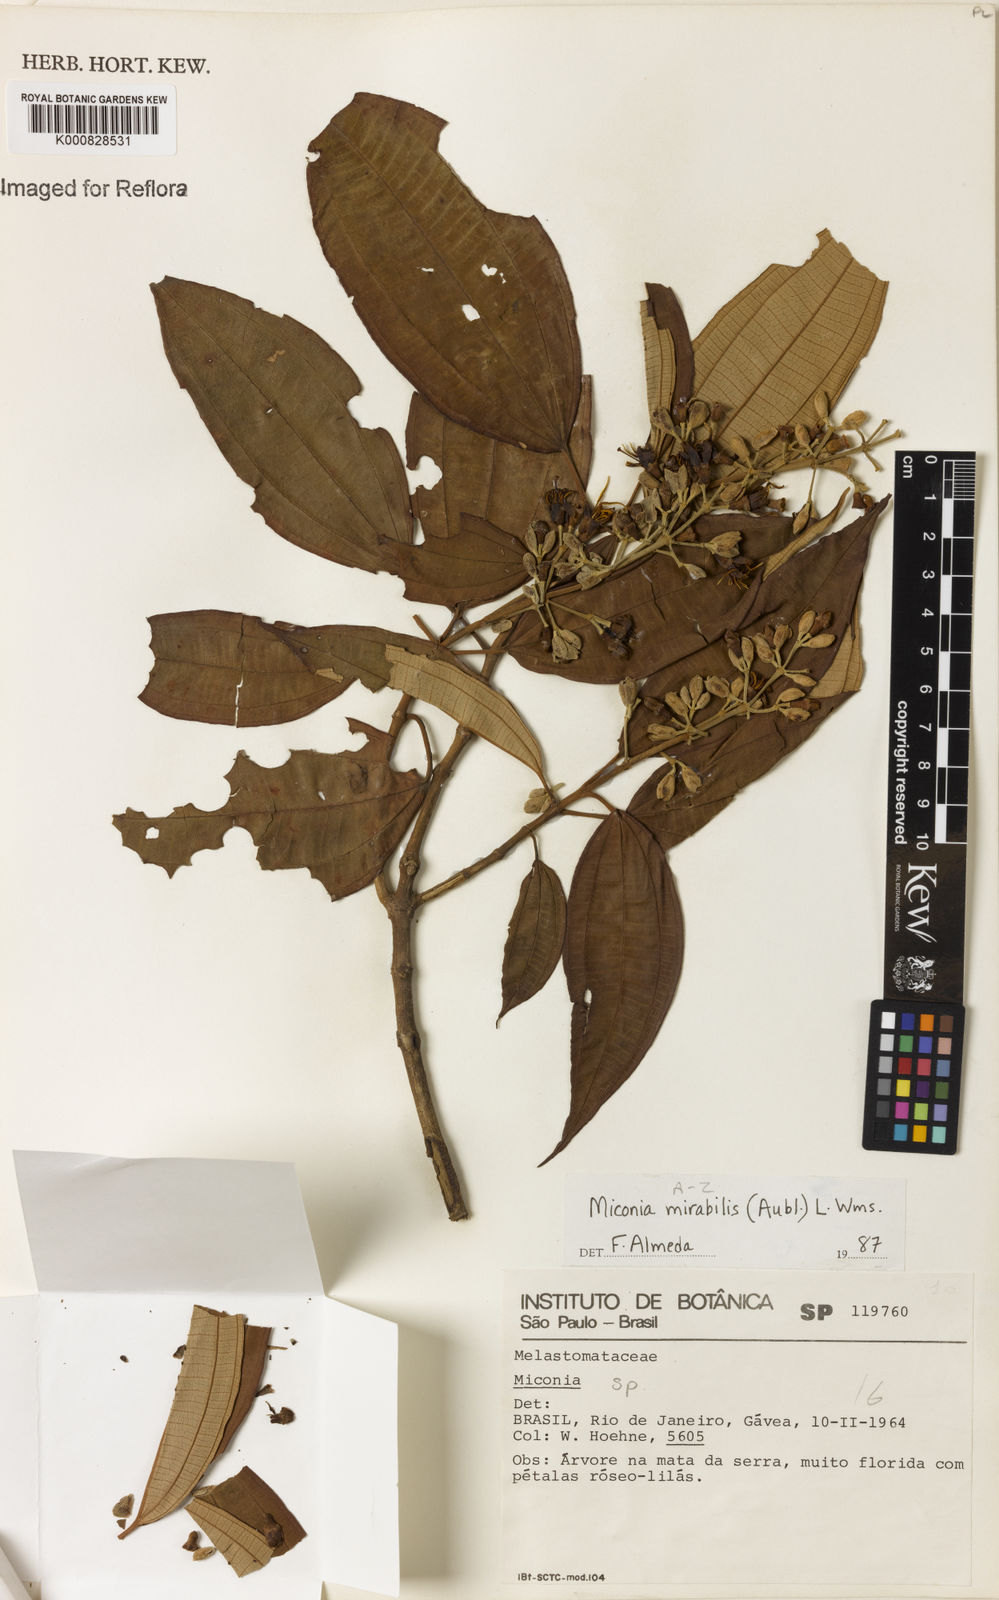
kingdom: Plantae
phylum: Tracheophyta
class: Magnoliopsida
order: Myrtales
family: Melastomataceae
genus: Miconia
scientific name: Miconia mirabilis
